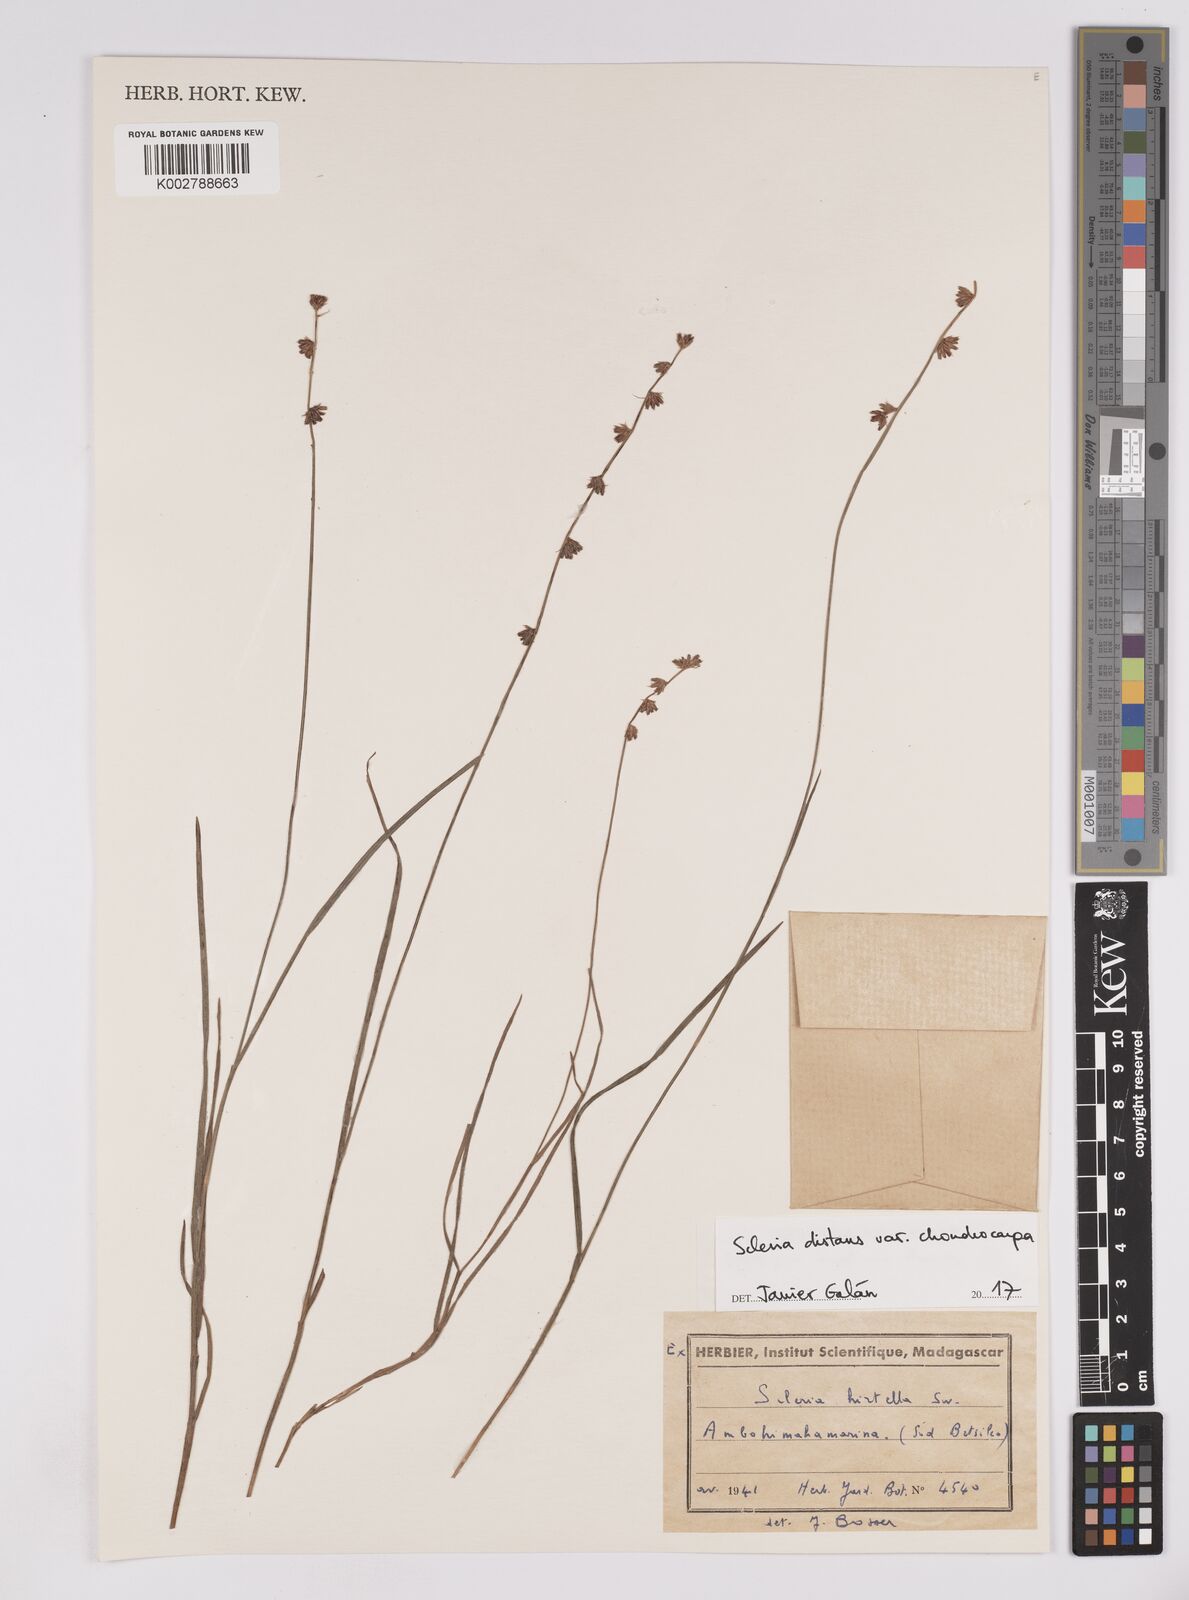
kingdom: Plantae
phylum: Tracheophyta
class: Liliopsida
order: Poales
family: Cyperaceae
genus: Scleria
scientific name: Scleria distans
